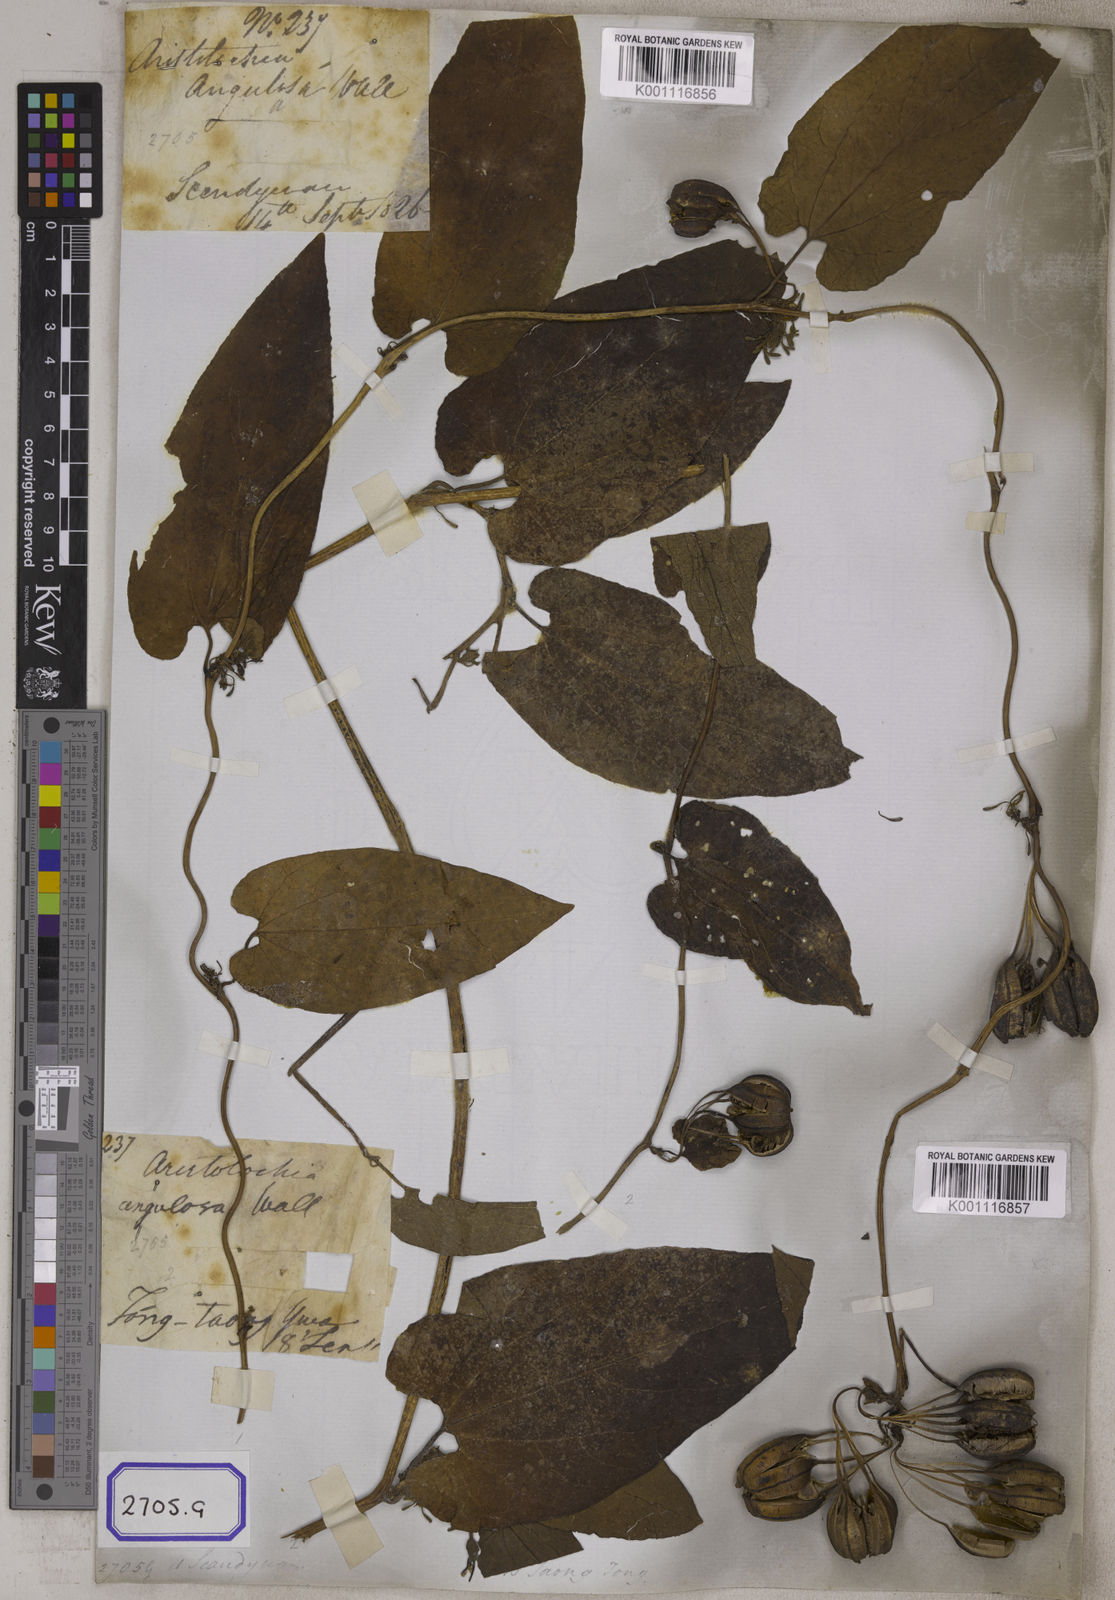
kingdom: Plantae
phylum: Tracheophyta
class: Magnoliopsida
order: Piperales
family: Aristolochiaceae
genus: Aristolochia
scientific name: Aristolochia acuminata
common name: Indian birthwort
